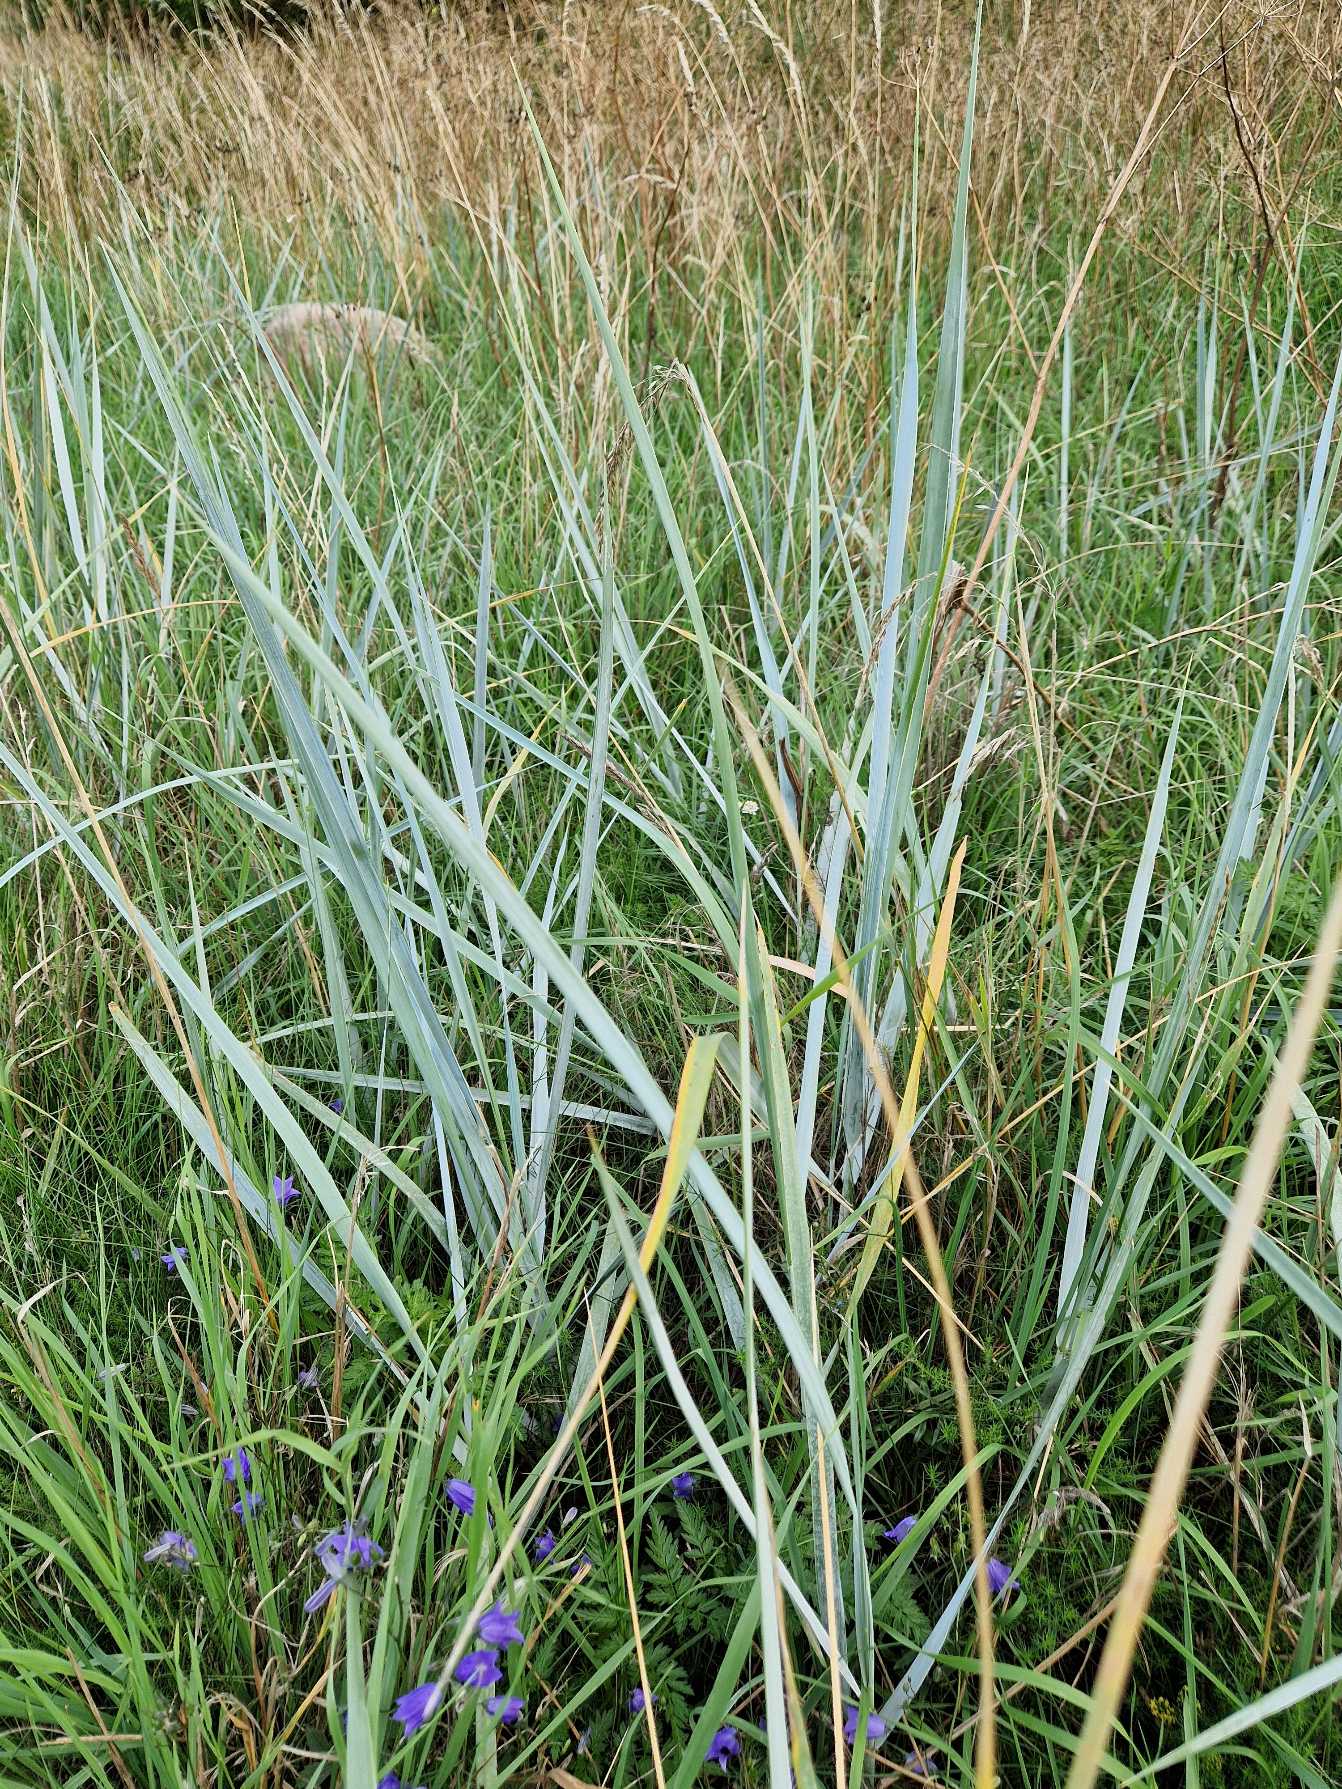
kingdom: Plantae
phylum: Tracheophyta
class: Liliopsida
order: Poales
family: Poaceae
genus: Calamagrostis
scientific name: Calamagrostis arenaria
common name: Sand-hjælme
